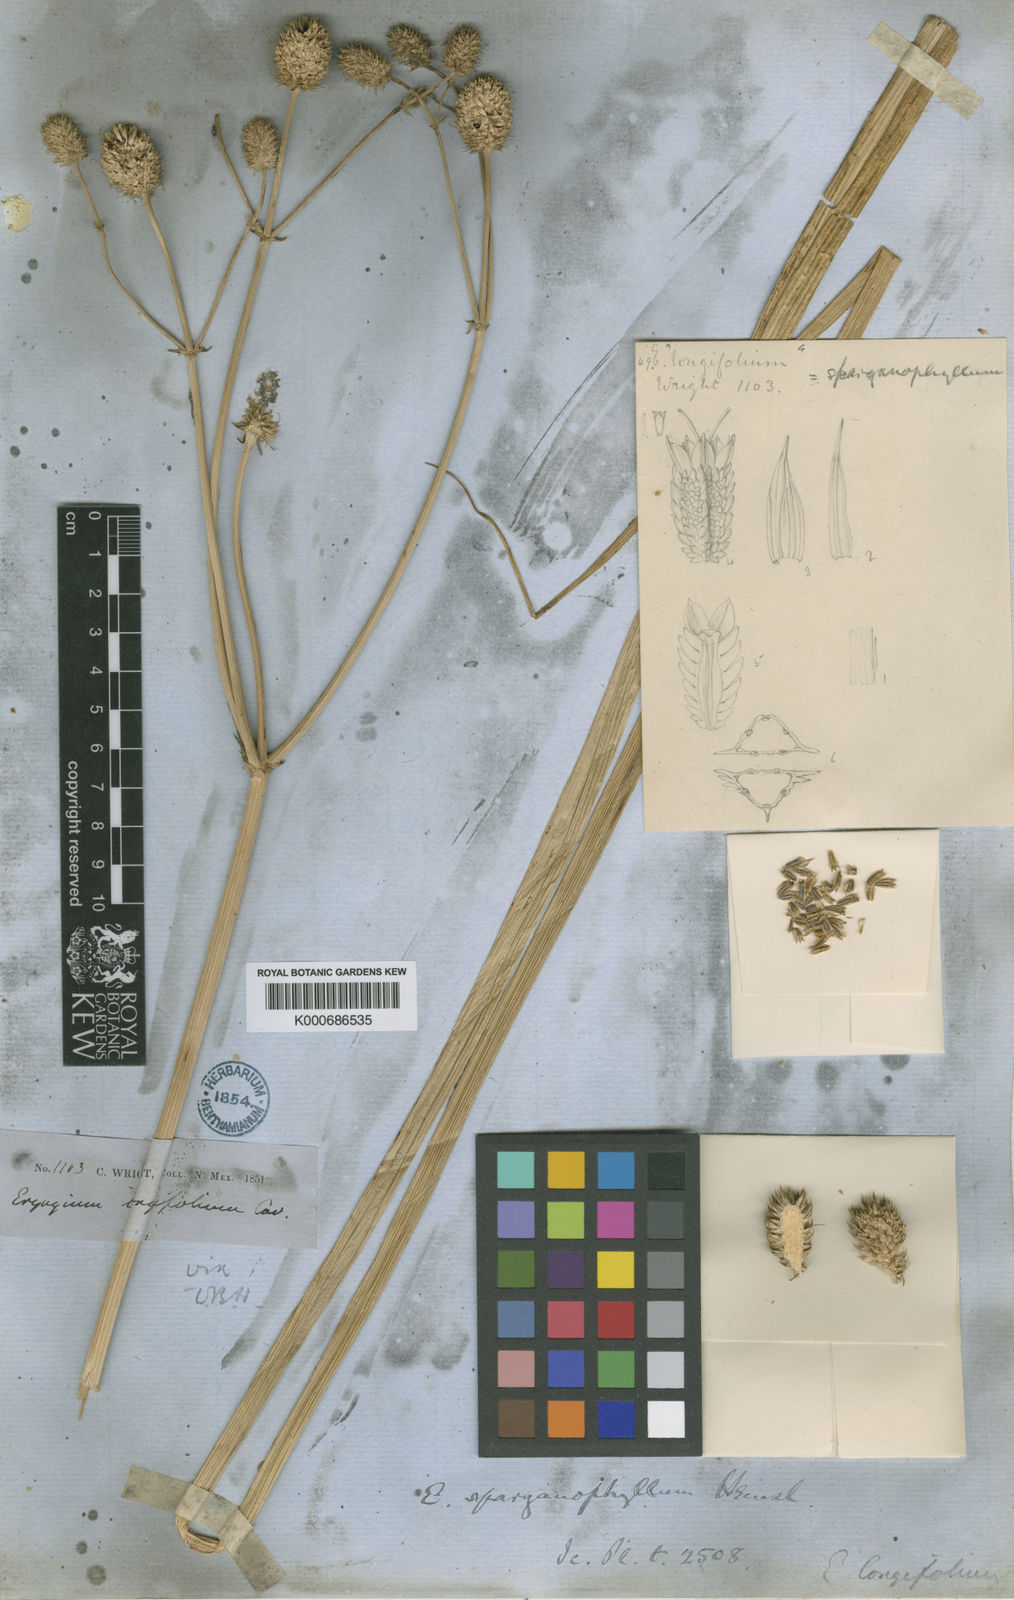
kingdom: Plantae
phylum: Tracheophyta
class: Magnoliopsida
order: Apiales
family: Apiaceae
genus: Eryngium
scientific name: Eryngium sparganophyllum
